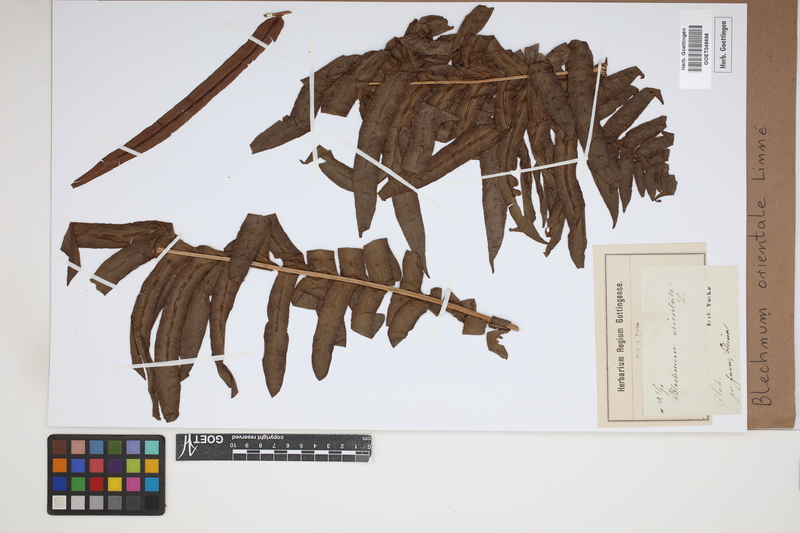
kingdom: Plantae
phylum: Tracheophyta
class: Polypodiopsida
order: Polypodiales
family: Blechnaceae
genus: Blechnopsis
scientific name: Blechnopsis orientalis
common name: Oriental blechnum
